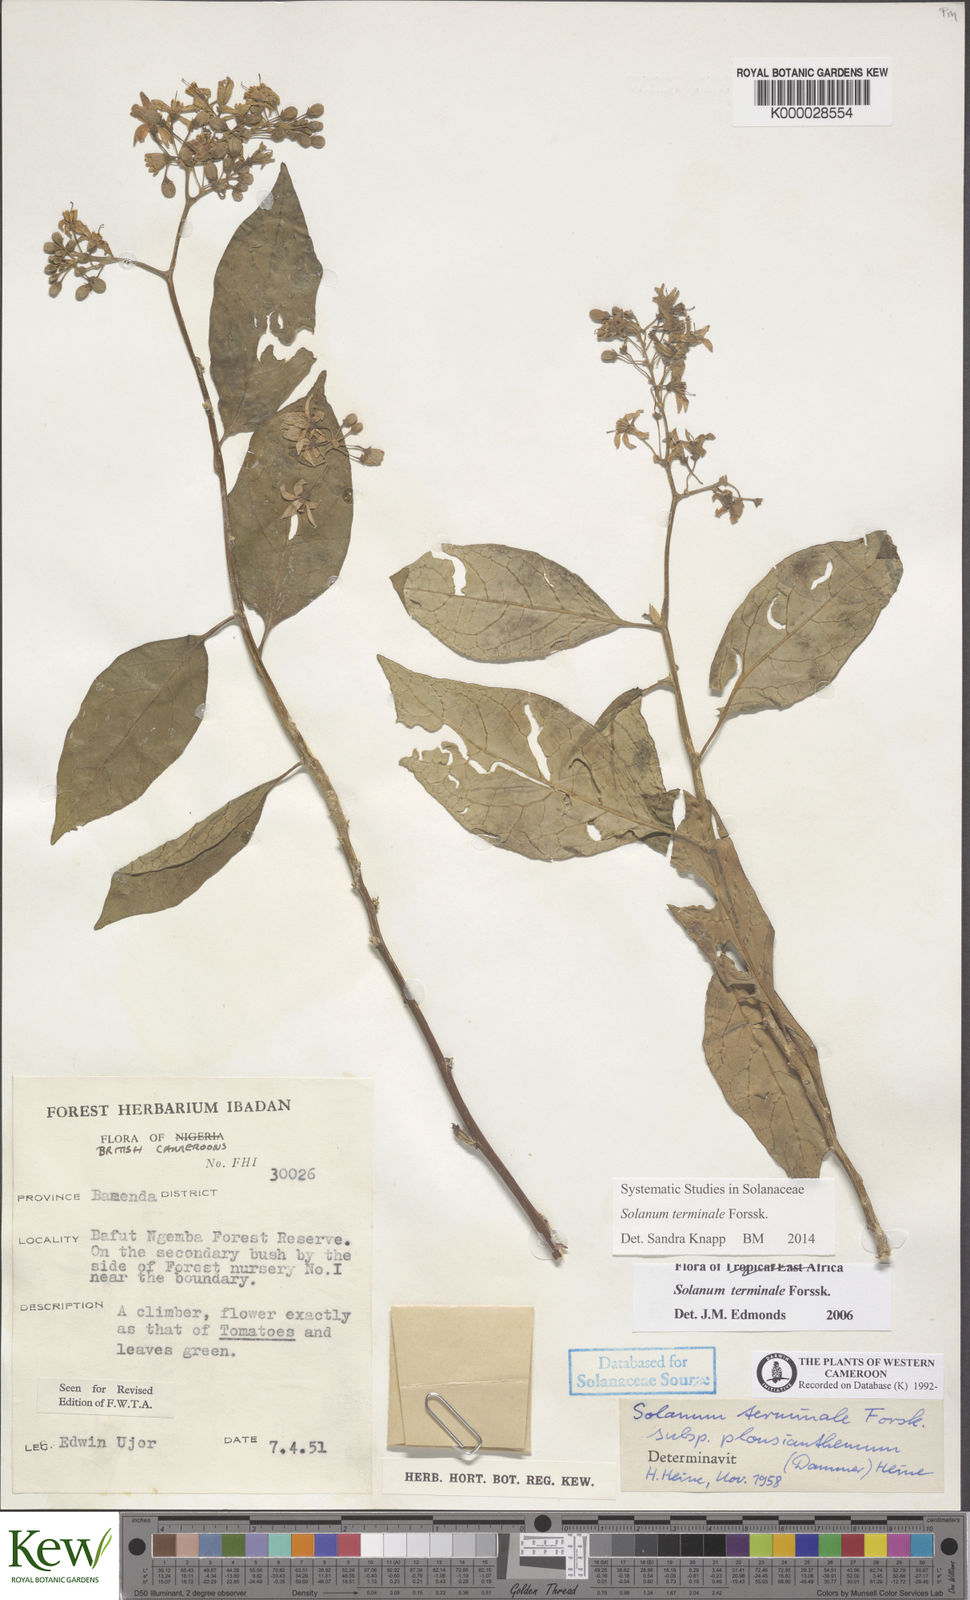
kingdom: Plantae
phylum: Tracheophyta
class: Magnoliopsida
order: Solanales
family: Solanaceae
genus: Solanum
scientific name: Solanum terminale
